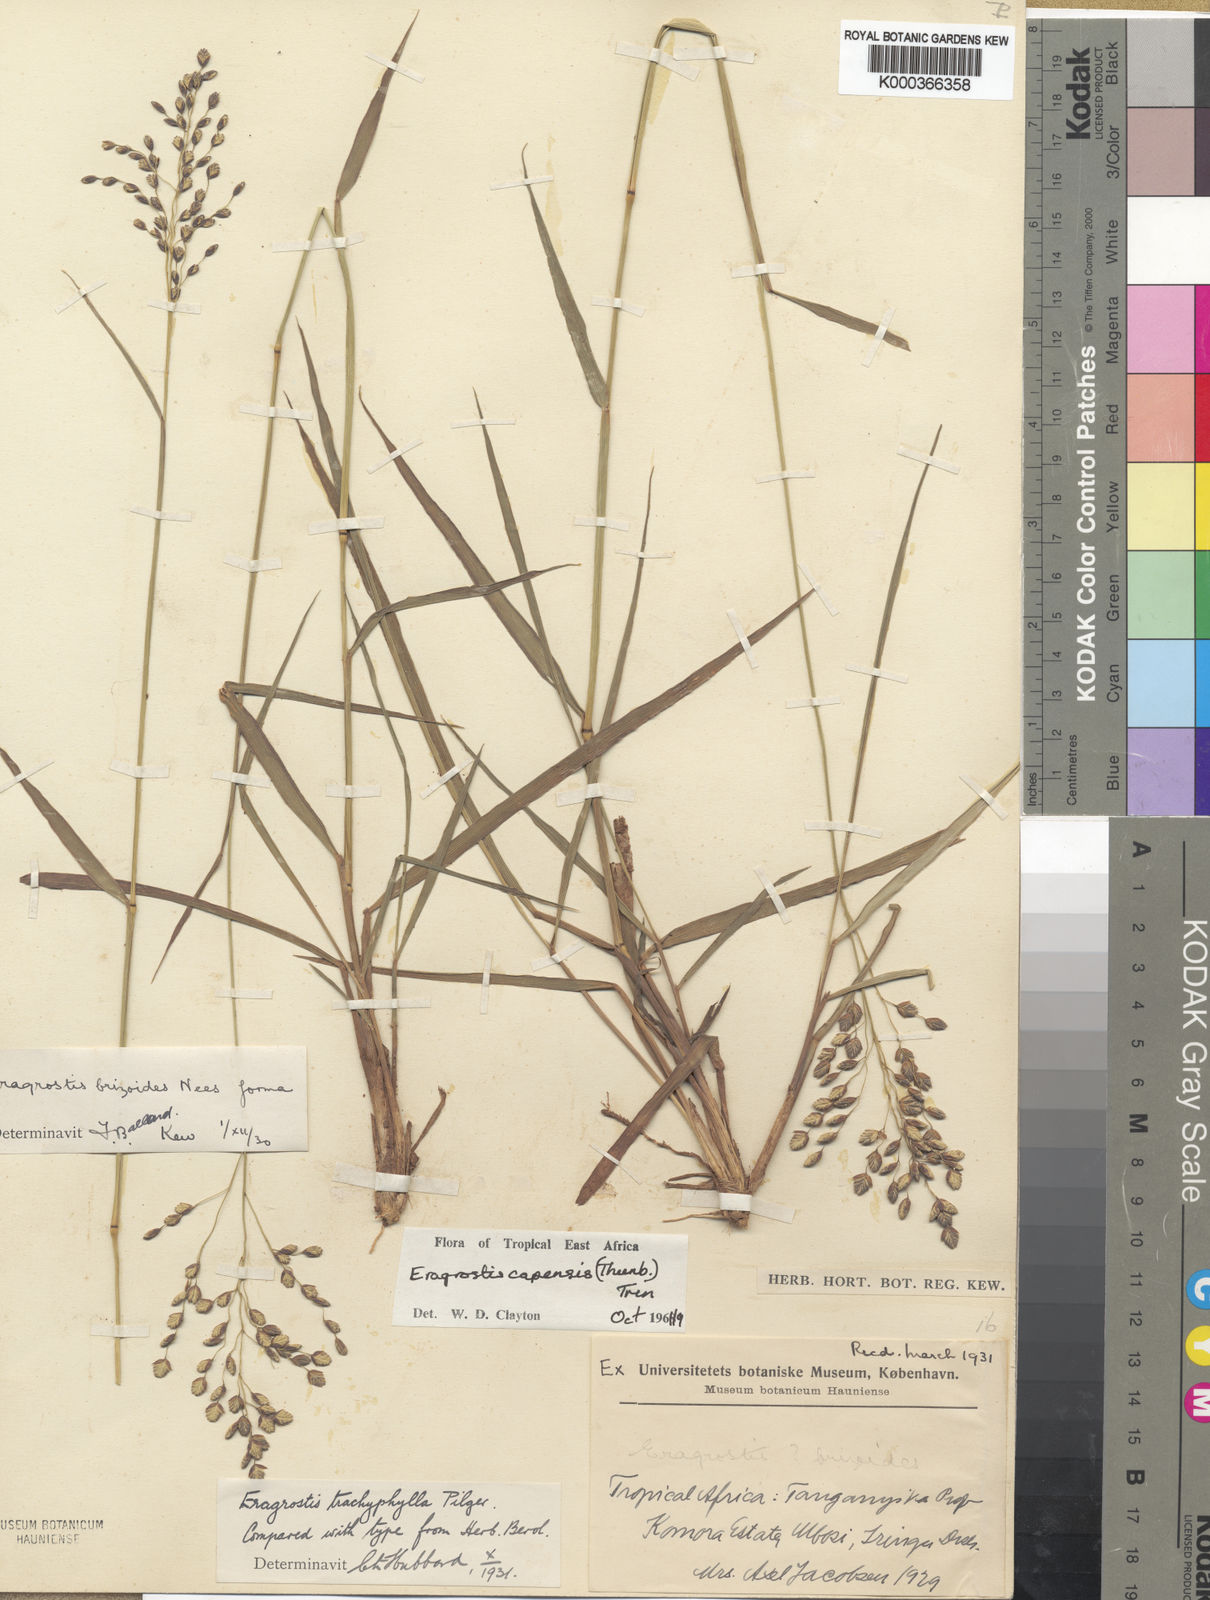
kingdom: Plantae
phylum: Tracheophyta
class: Liliopsida
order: Poales
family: Poaceae
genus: Eragrostis
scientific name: Eragrostis capensis
